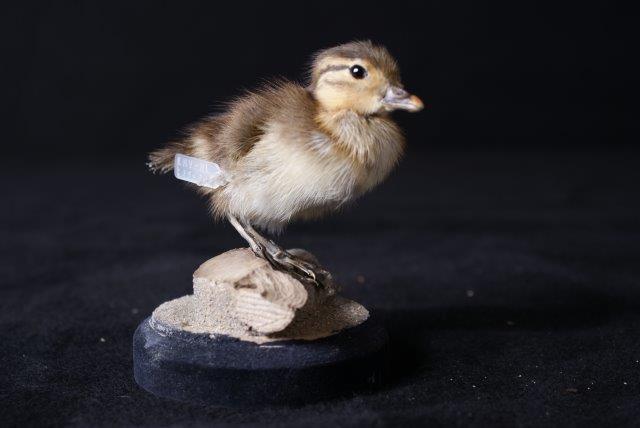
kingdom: Animalia
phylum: Chordata
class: Aves
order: Anseriformes
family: Anatidae
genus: Aix
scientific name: Aix galericulata
